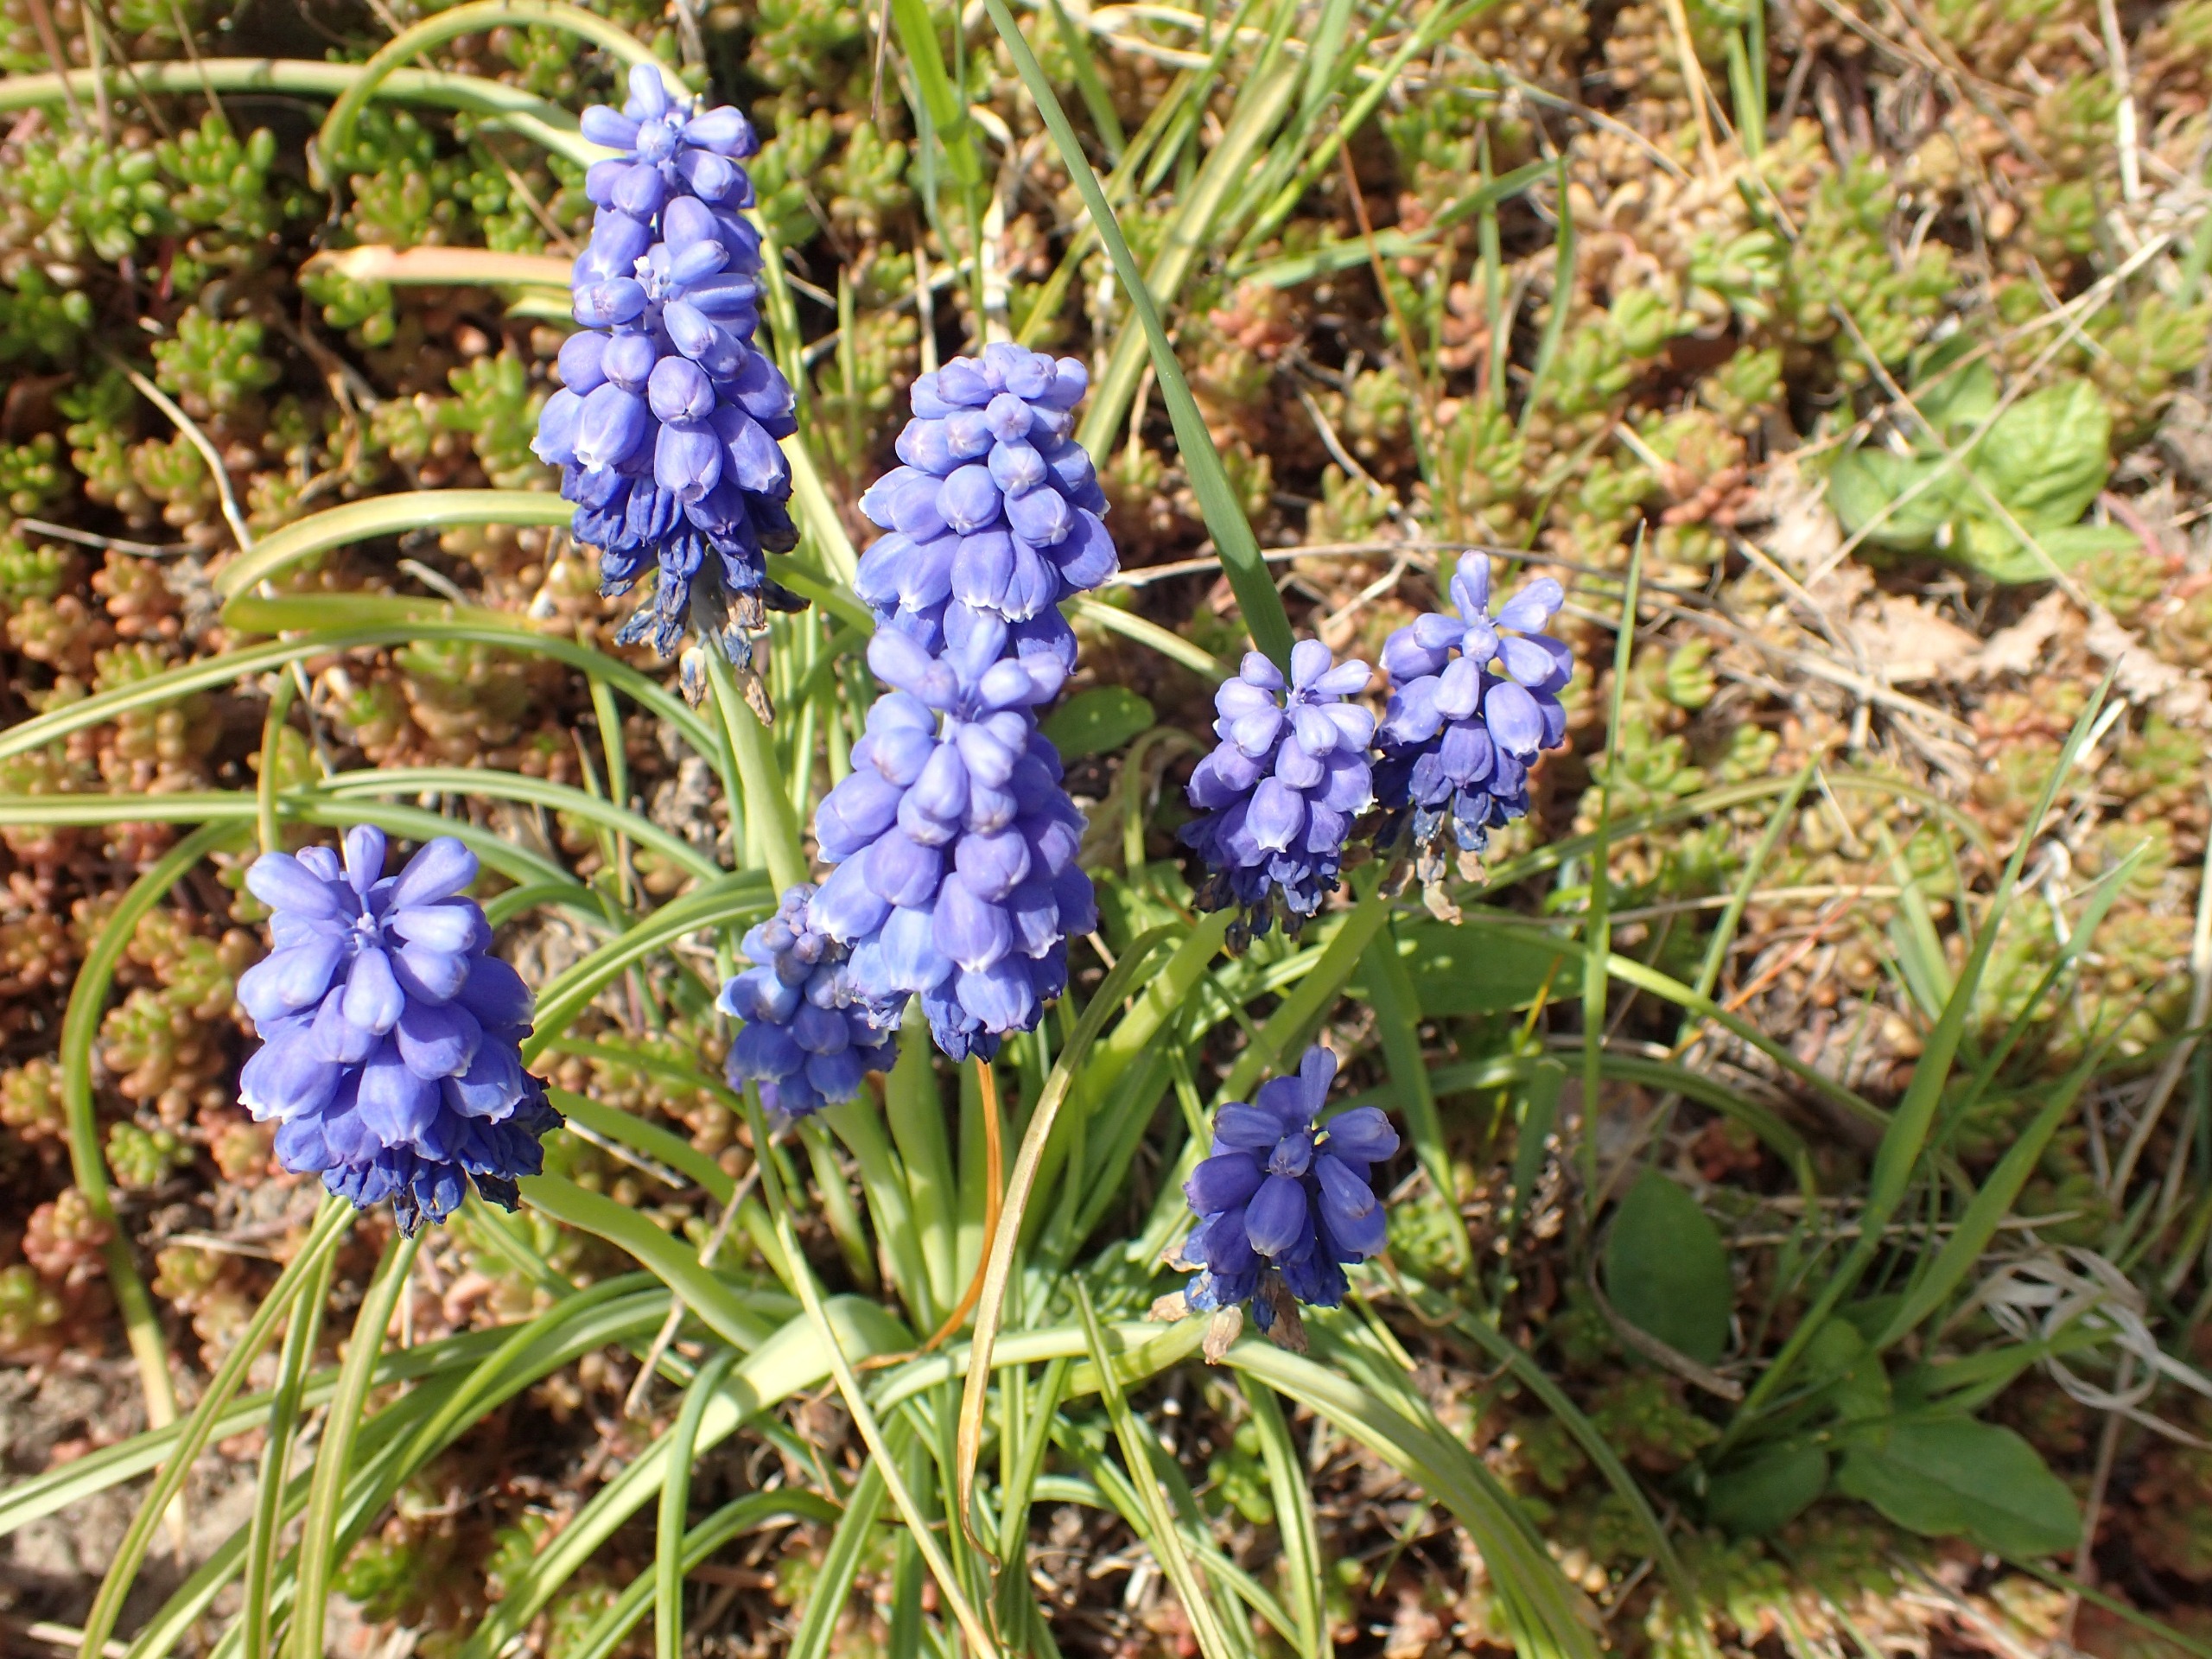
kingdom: Plantae
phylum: Tracheophyta
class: Liliopsida
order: Asparagales
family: Asparagaceae
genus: Muscari
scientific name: Muscari armeniacum
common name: Armensk perlehyacint
